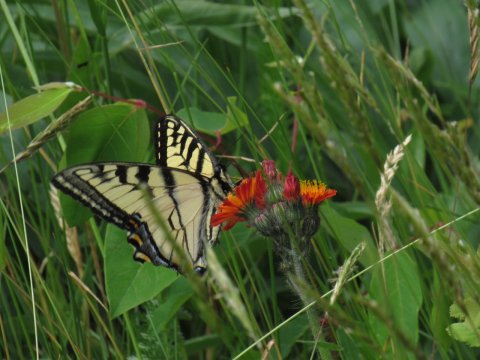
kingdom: Animalia
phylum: Arthropoda
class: Insecta
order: Lepidoptera
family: Papilionidae
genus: Pterourus
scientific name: Pterourus canadensis
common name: Canadian Tiger Swallowtail
